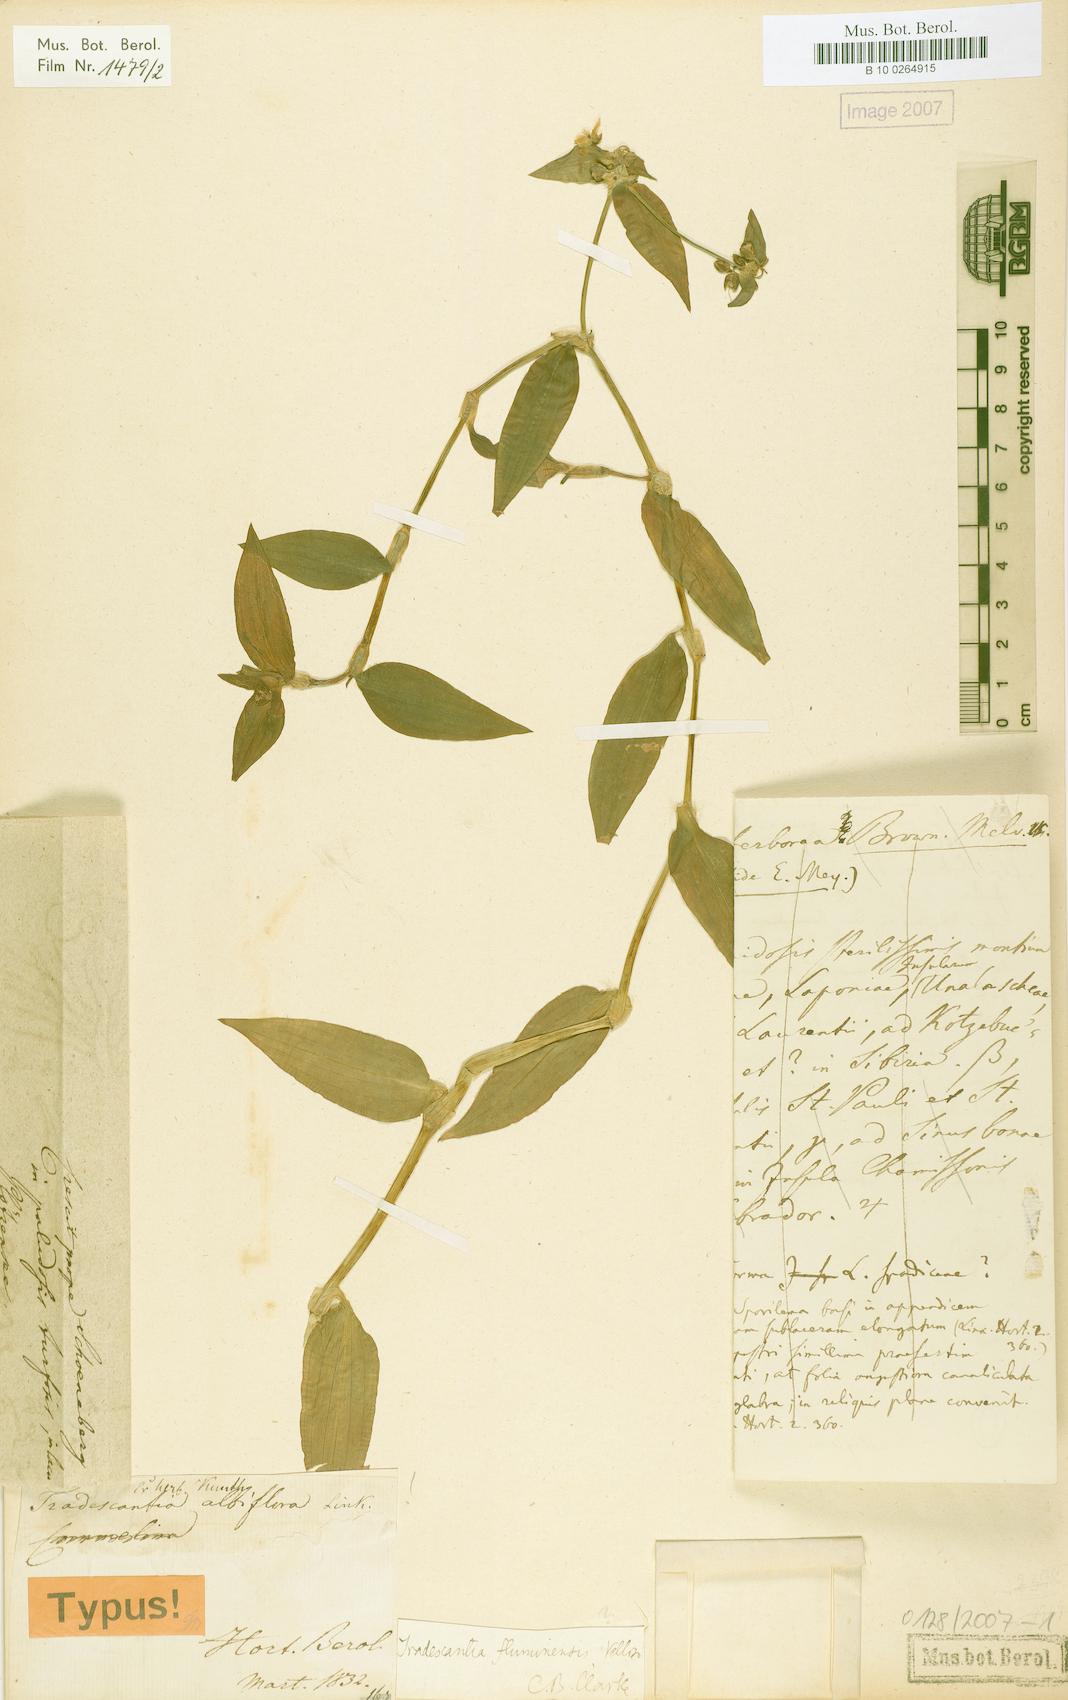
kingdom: Plantae
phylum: Tracheophyta
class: Liliopsida
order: Commelinales
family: Commelinaceae
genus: Tradescantia
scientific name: Tradescantia fluminensis
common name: Wandering-jew
